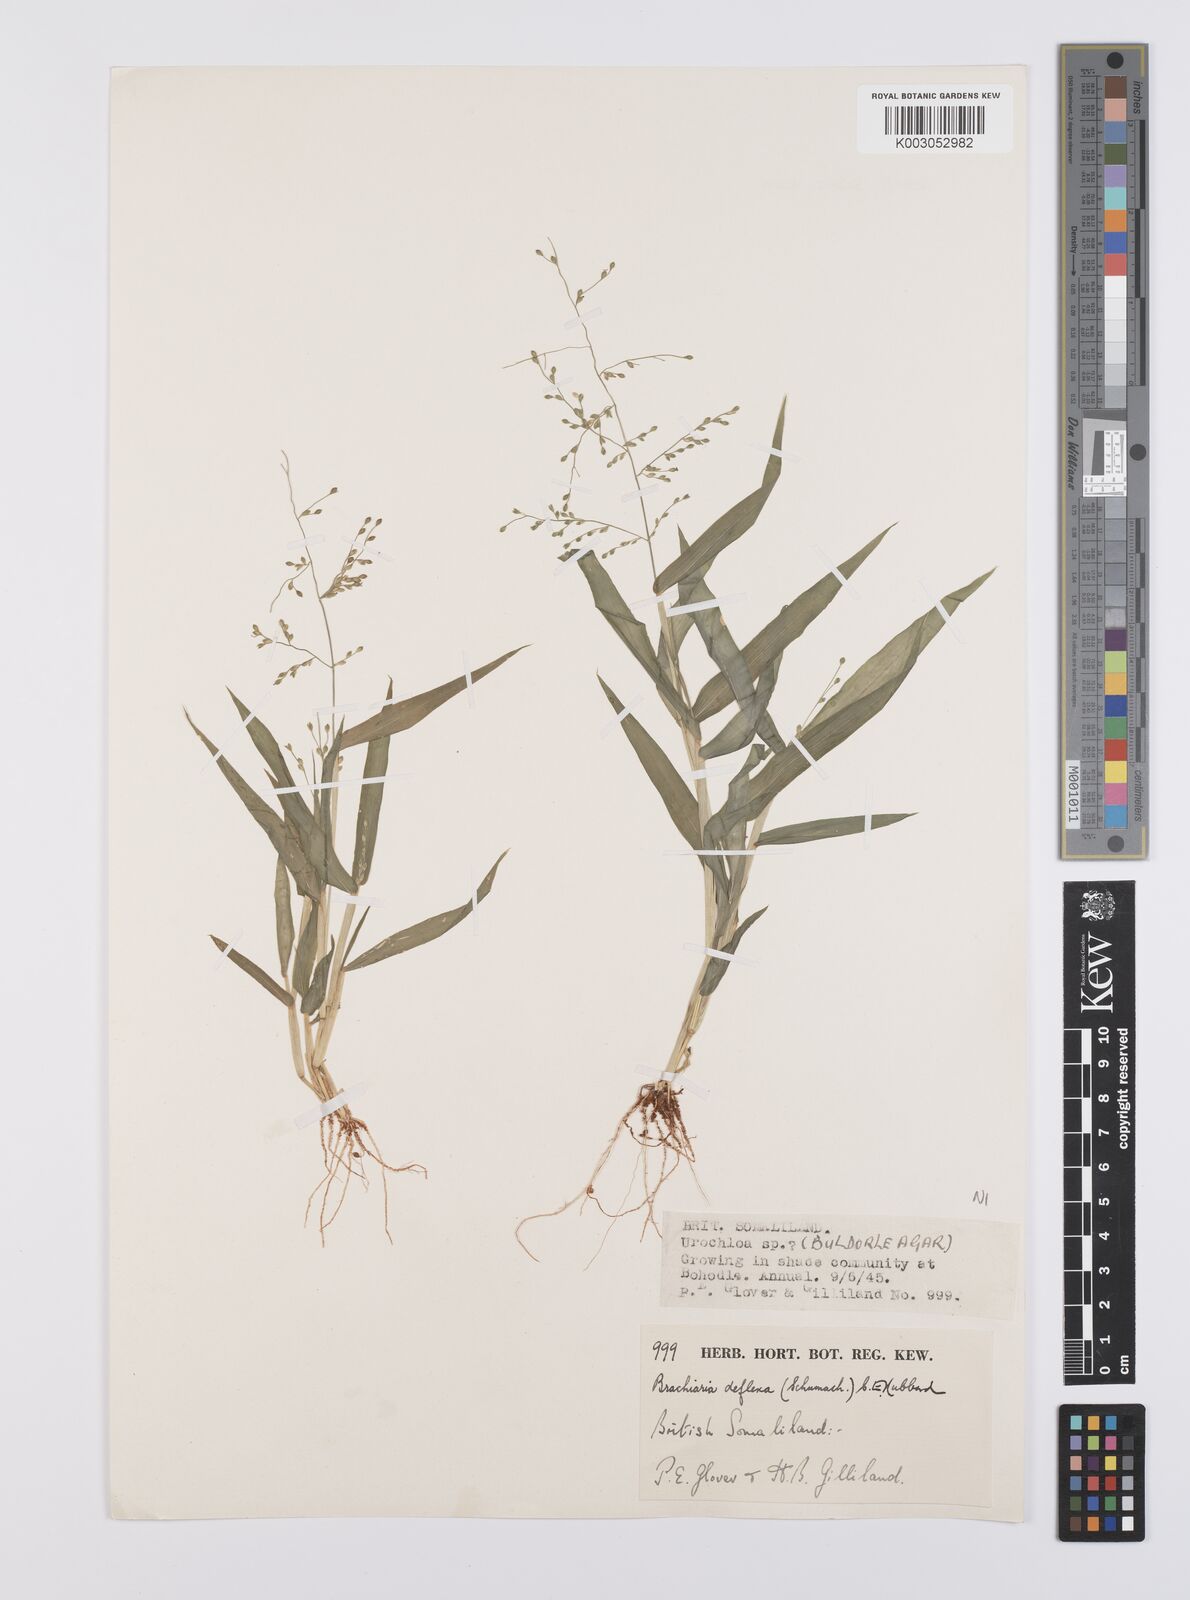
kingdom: Plantae
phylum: Tracheophyta
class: Liliopsida
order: Poales
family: Poaceae
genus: Urochloa
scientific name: Urochloa deflexa
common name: Guinea millet
